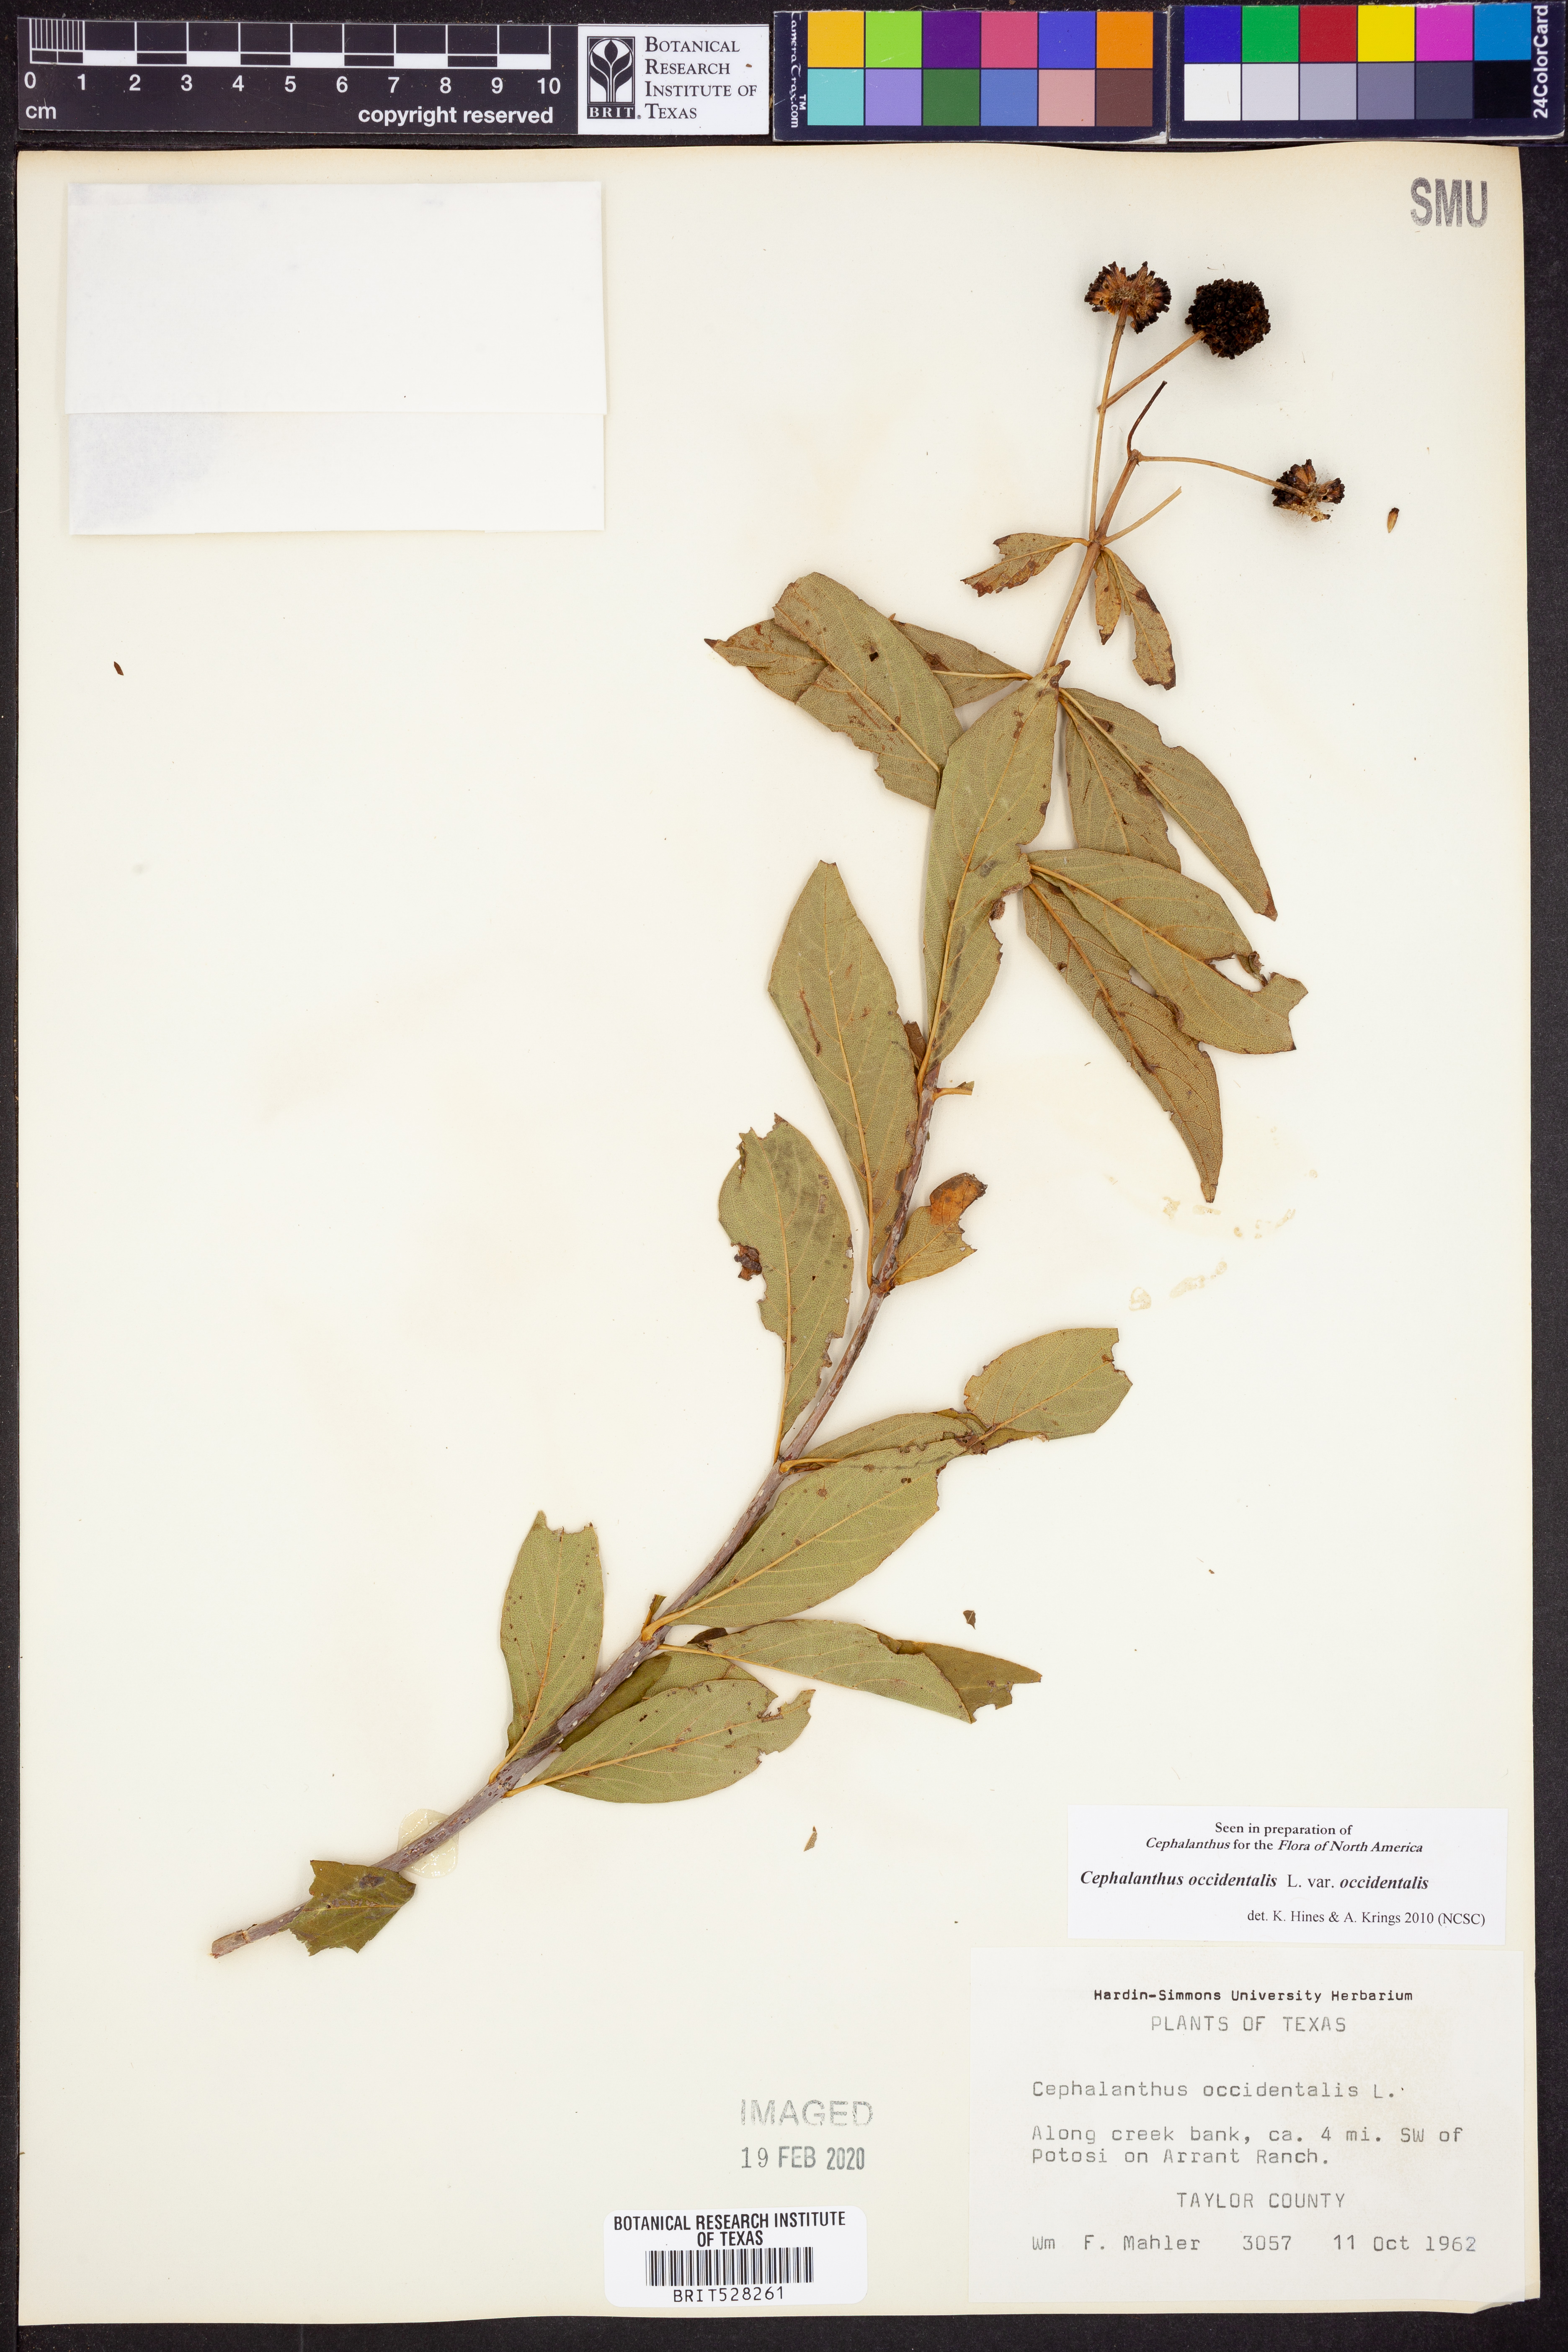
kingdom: Plantae
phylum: Tracheophyta
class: Magnoliopsida
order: Gentianales
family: Rubiaceae
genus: Cephalanthus
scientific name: Cephalanthus occidentalis
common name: Button-willow
